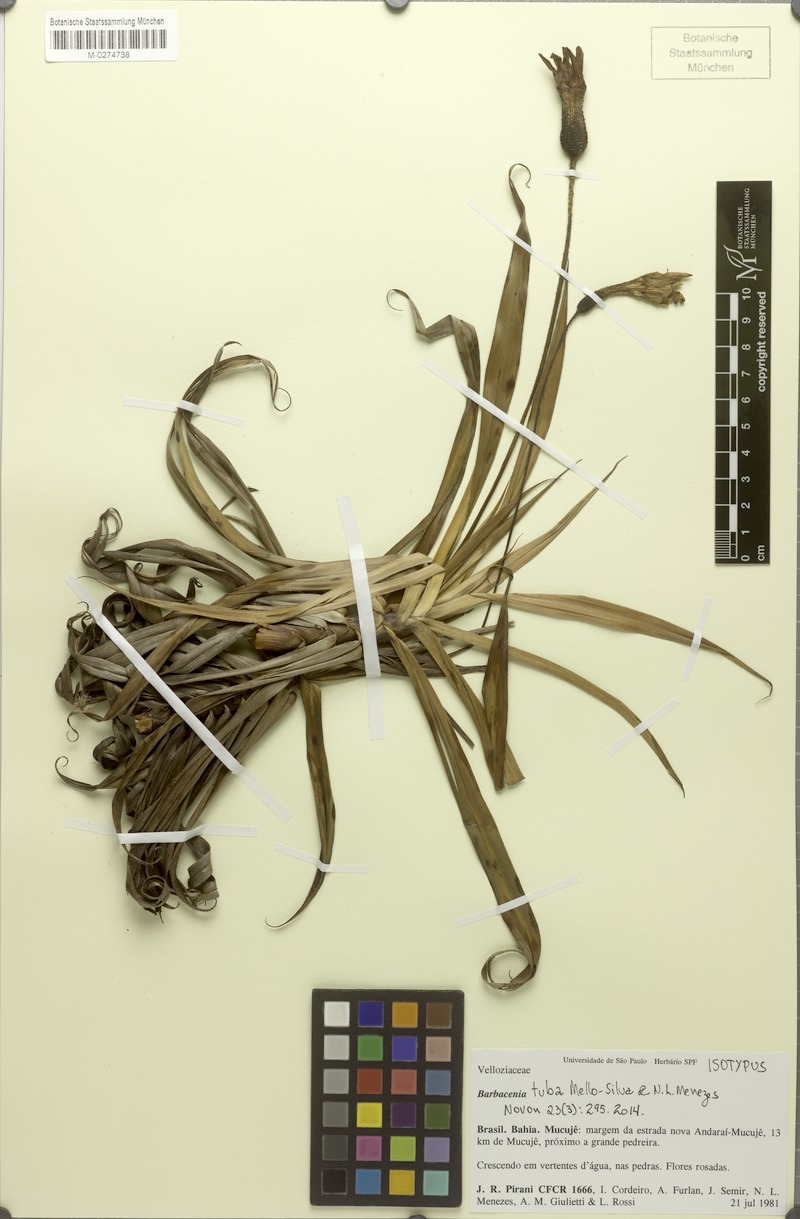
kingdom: Plantae
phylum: Tracheophyta
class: Liliopsida
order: Pandanales
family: Velloziaceae
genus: Barbacenia
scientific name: Barbacenia tuba
